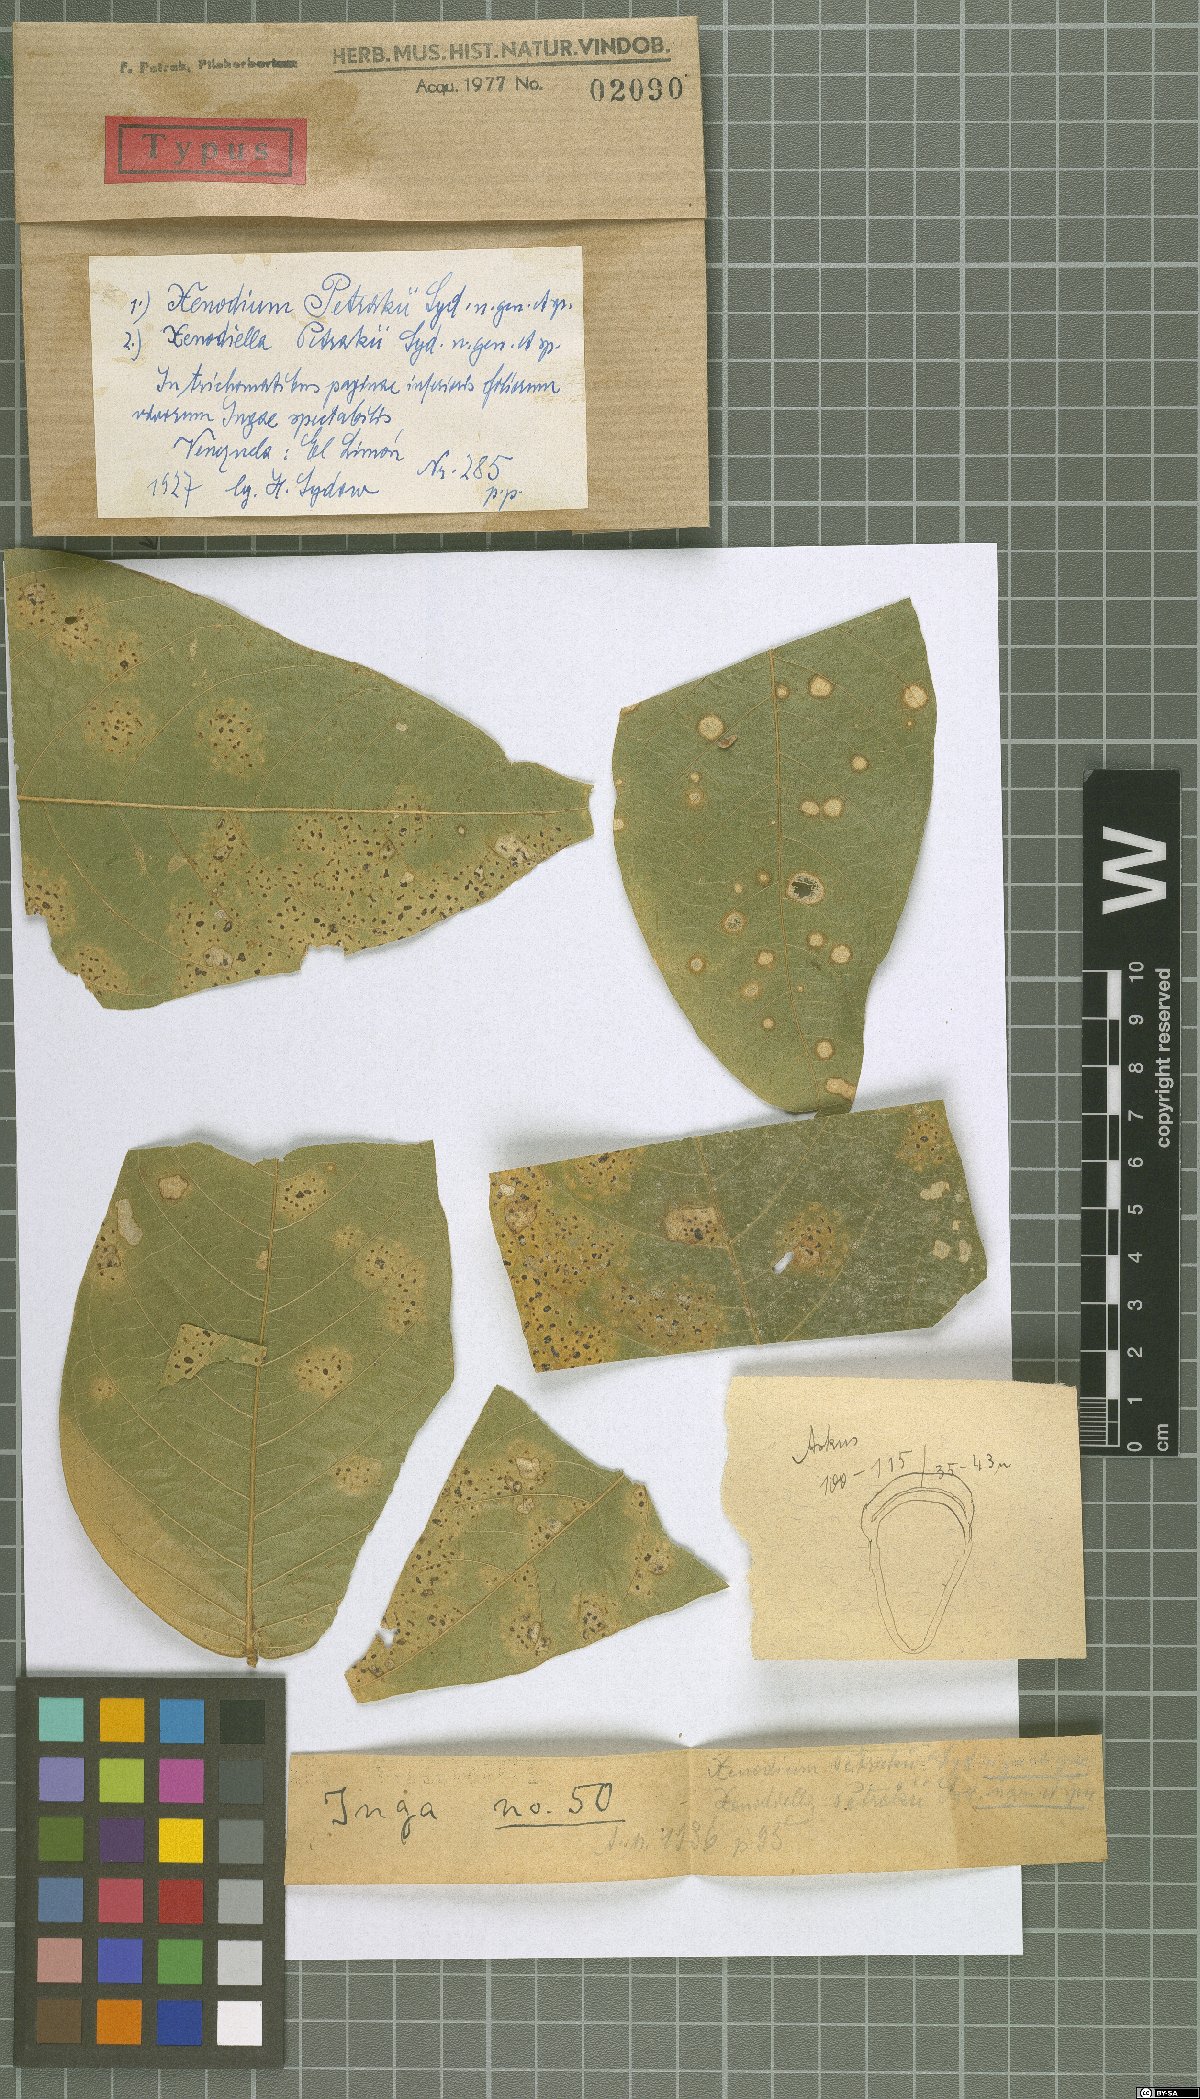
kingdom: Fungi
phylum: Ascomycota
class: Dothideomycetes
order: Myriangiales
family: Elsinoaceae
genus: Xenodium
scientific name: Xenodium petrakii
